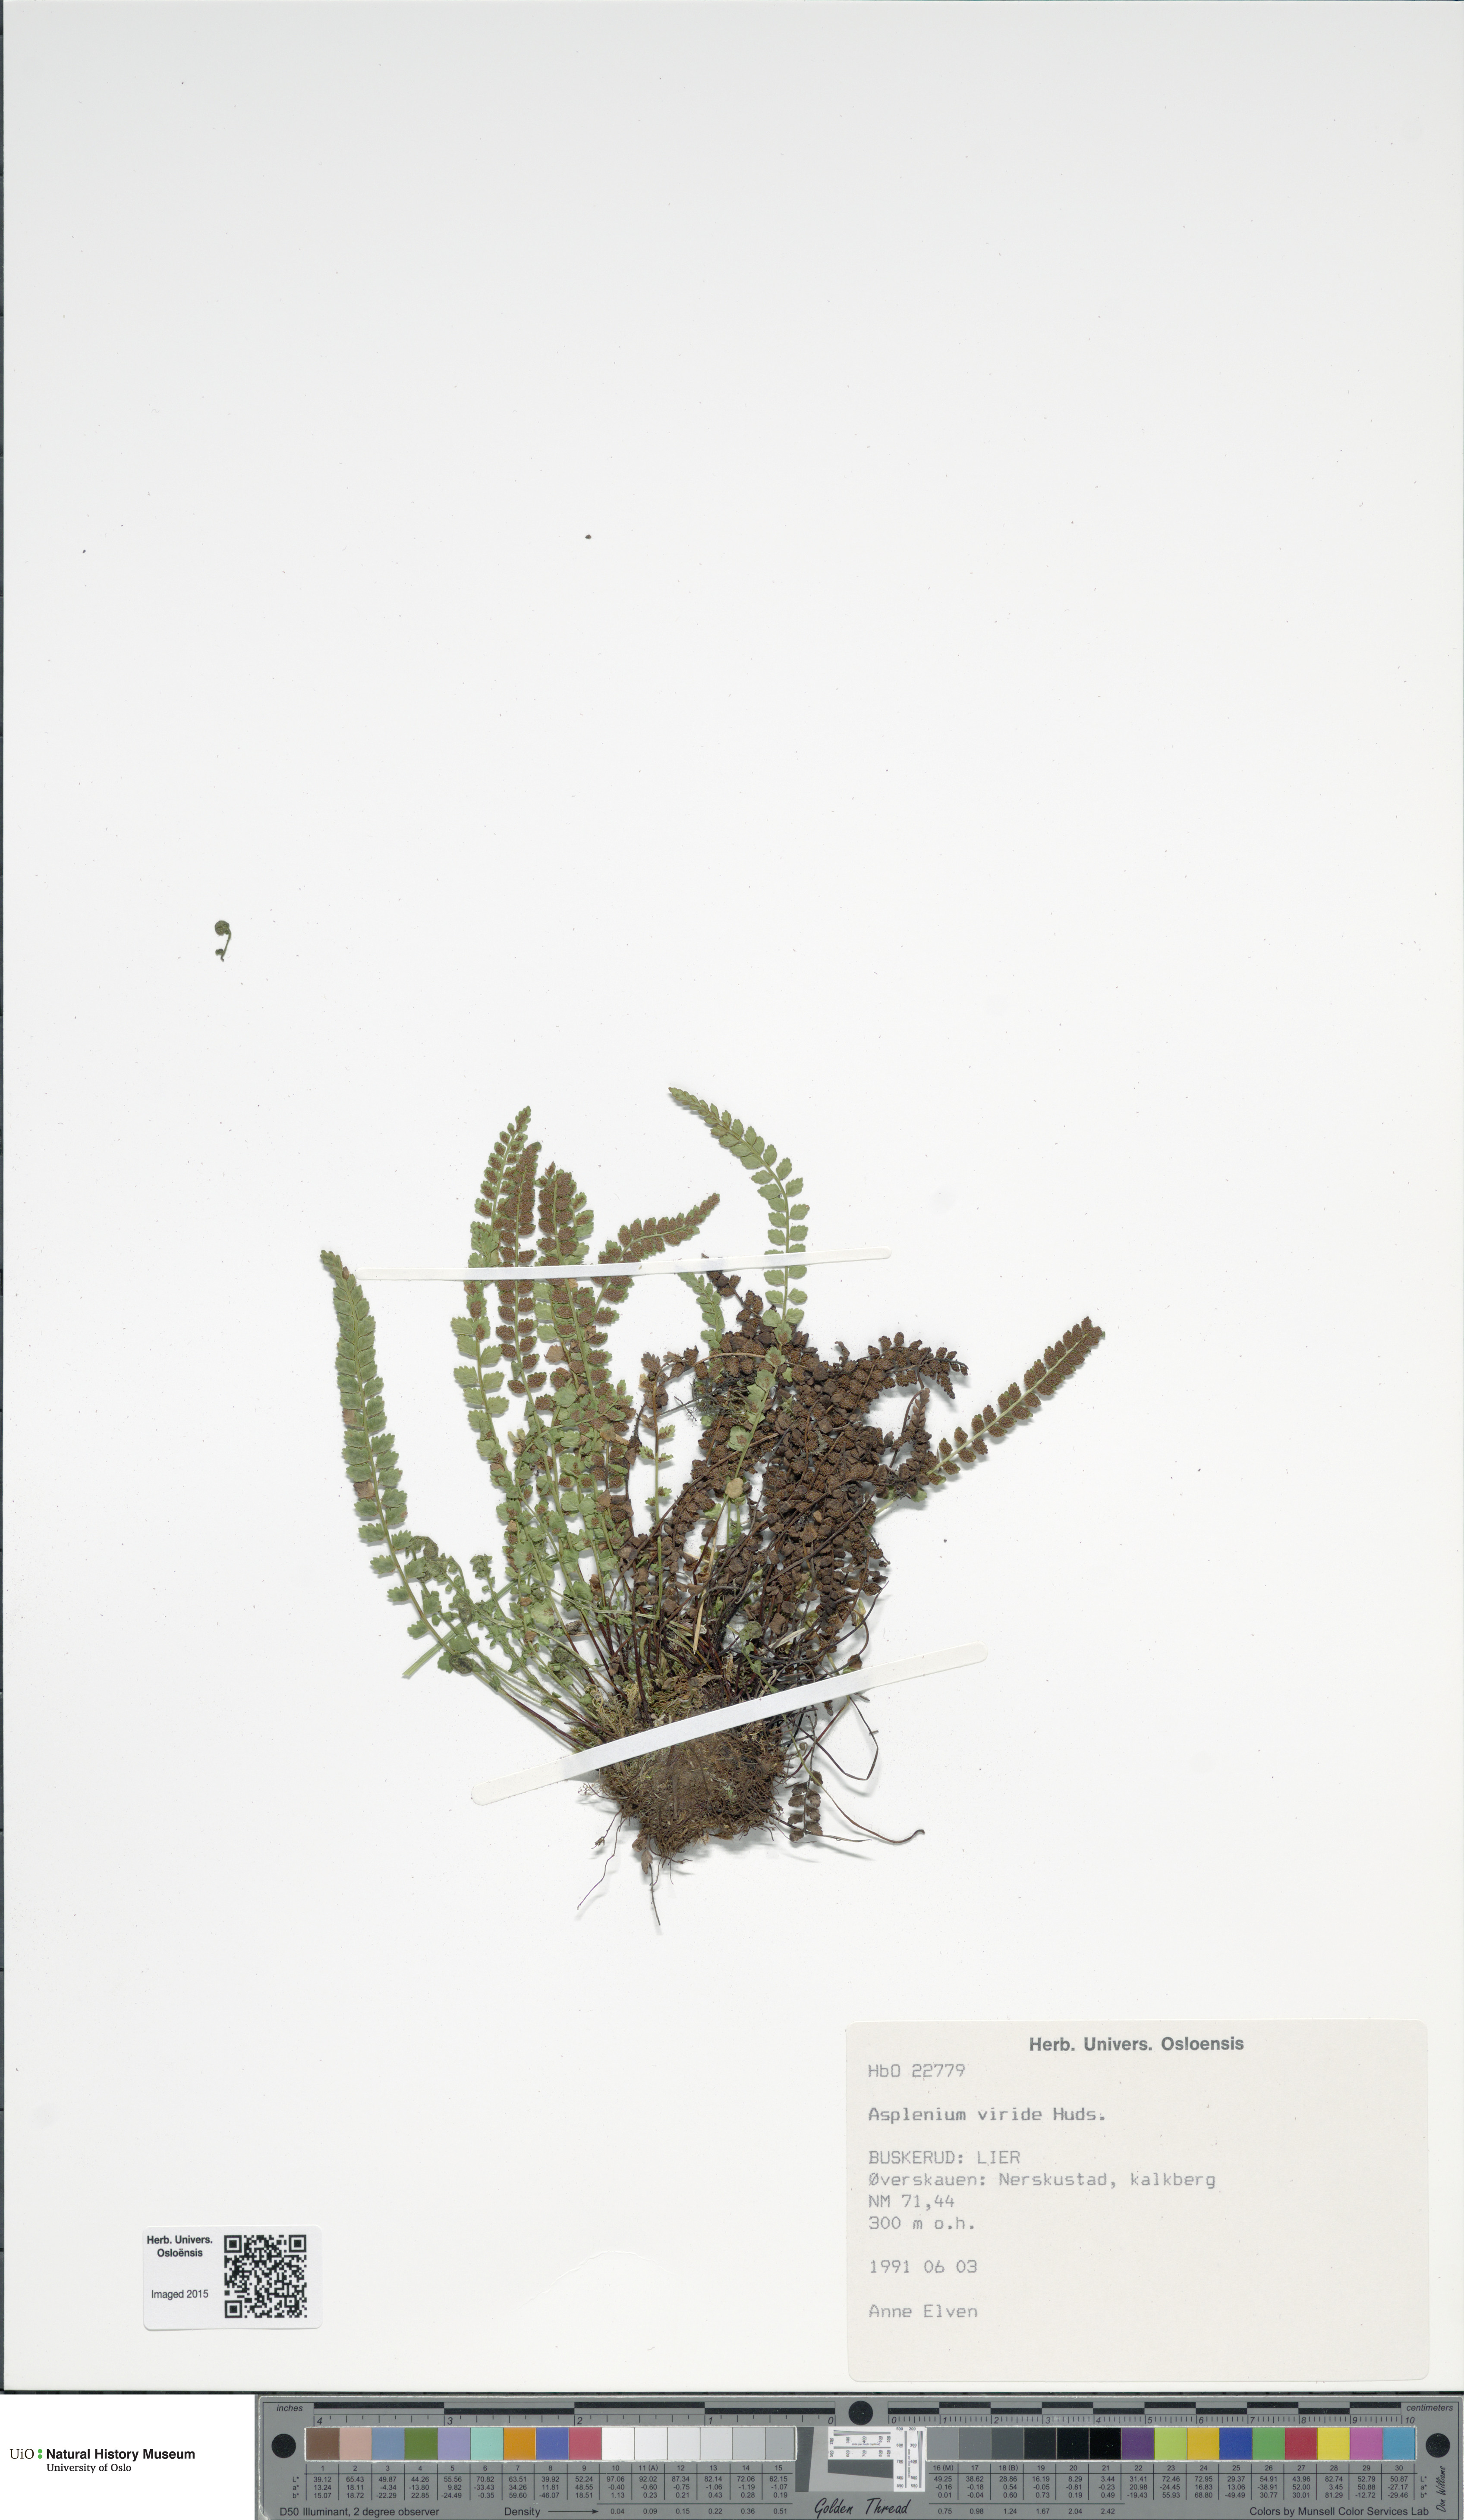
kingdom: Plantae
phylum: Tracheophyta
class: Polypodiopsida
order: Polypodiales
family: Aspleniaceae
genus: Asplenium
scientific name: Asplenium viride
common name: Green spleenwort
